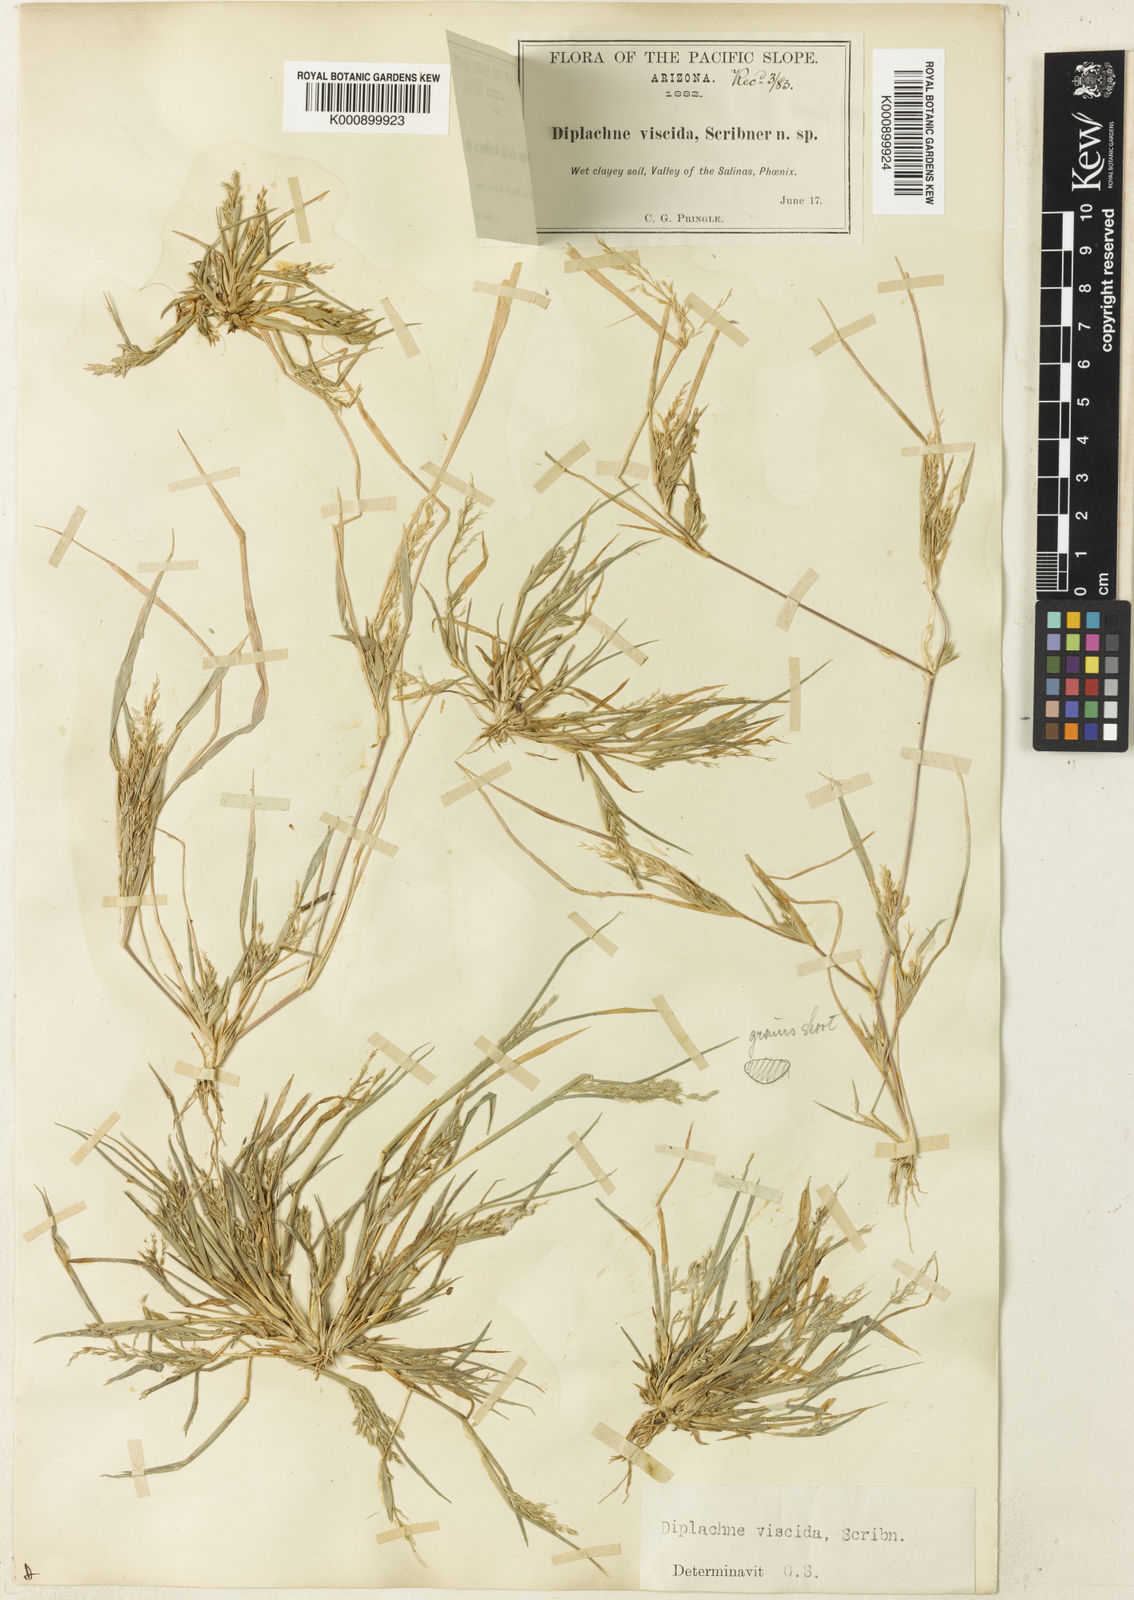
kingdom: Plantae
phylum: Tracheophyta
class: Liliopsida
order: Poales
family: Poaceae
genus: Leptochloa
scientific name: Leptochloa viscida
